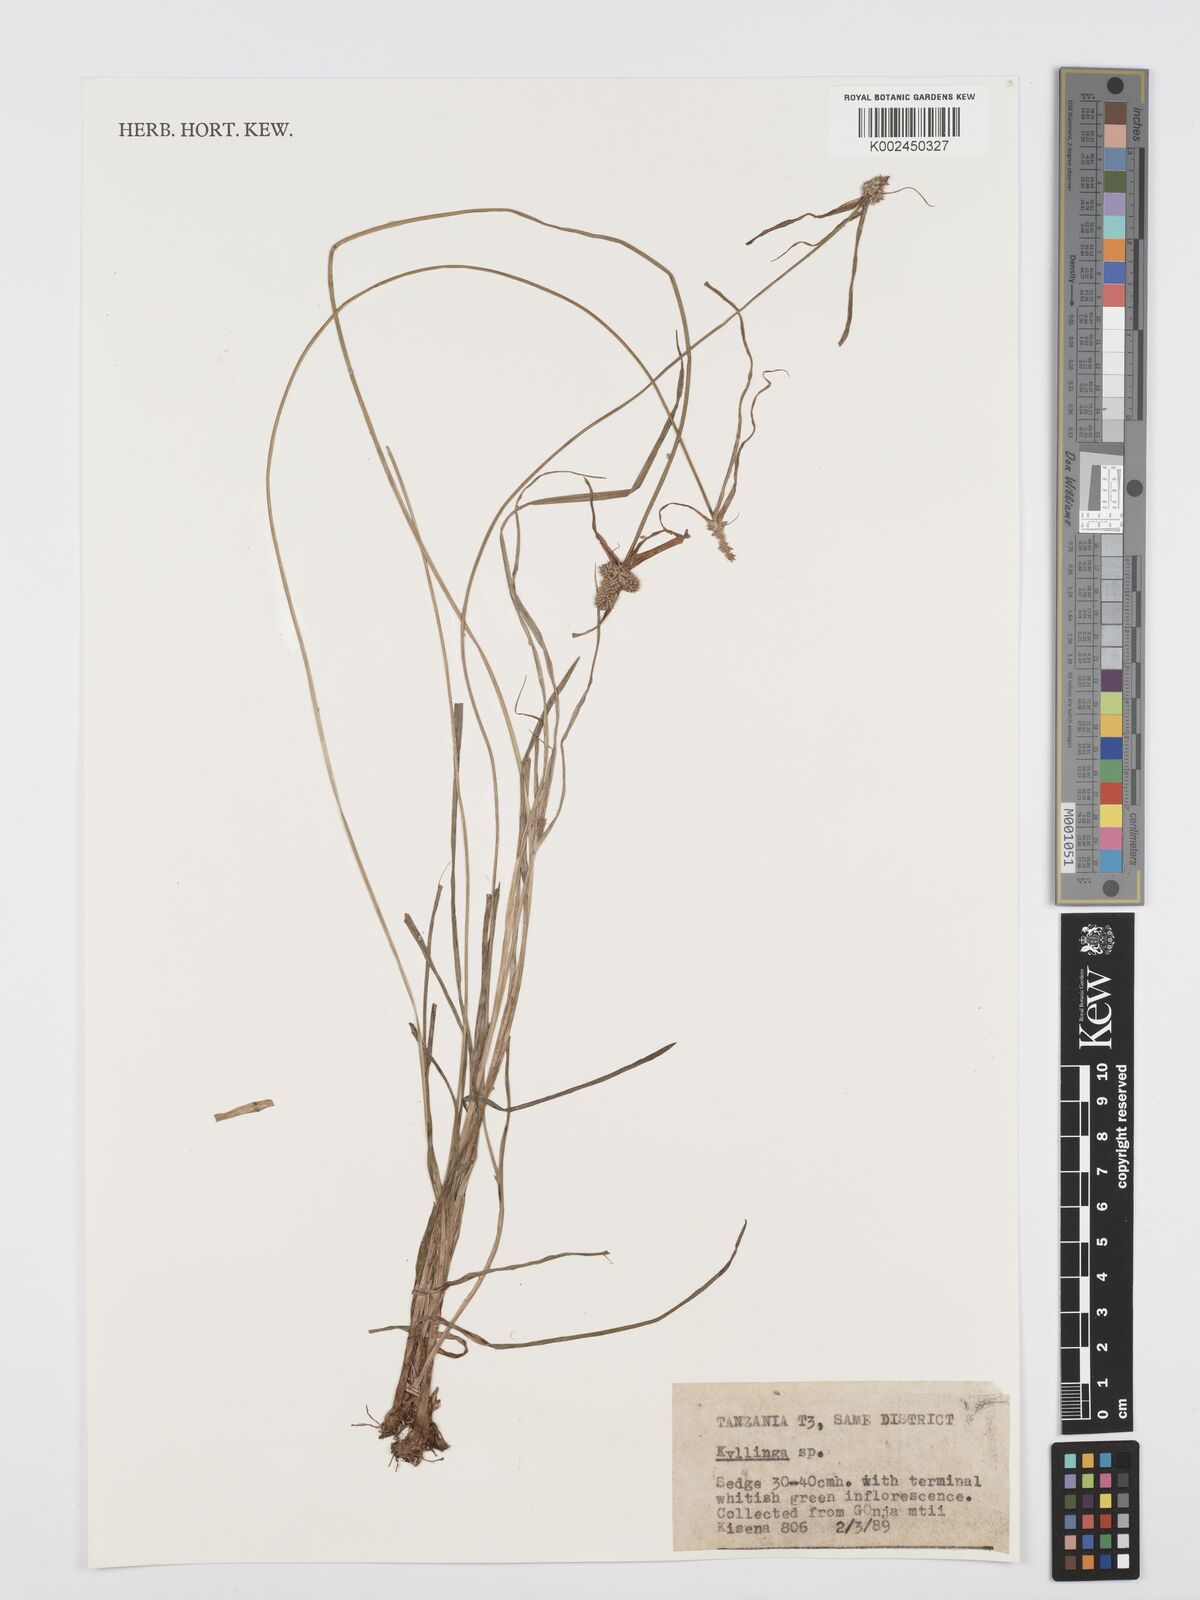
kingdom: Plantae
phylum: Tracheophyta
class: Liliopsida
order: Poales
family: Cyperaceae
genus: Cyperus
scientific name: Cyperus
